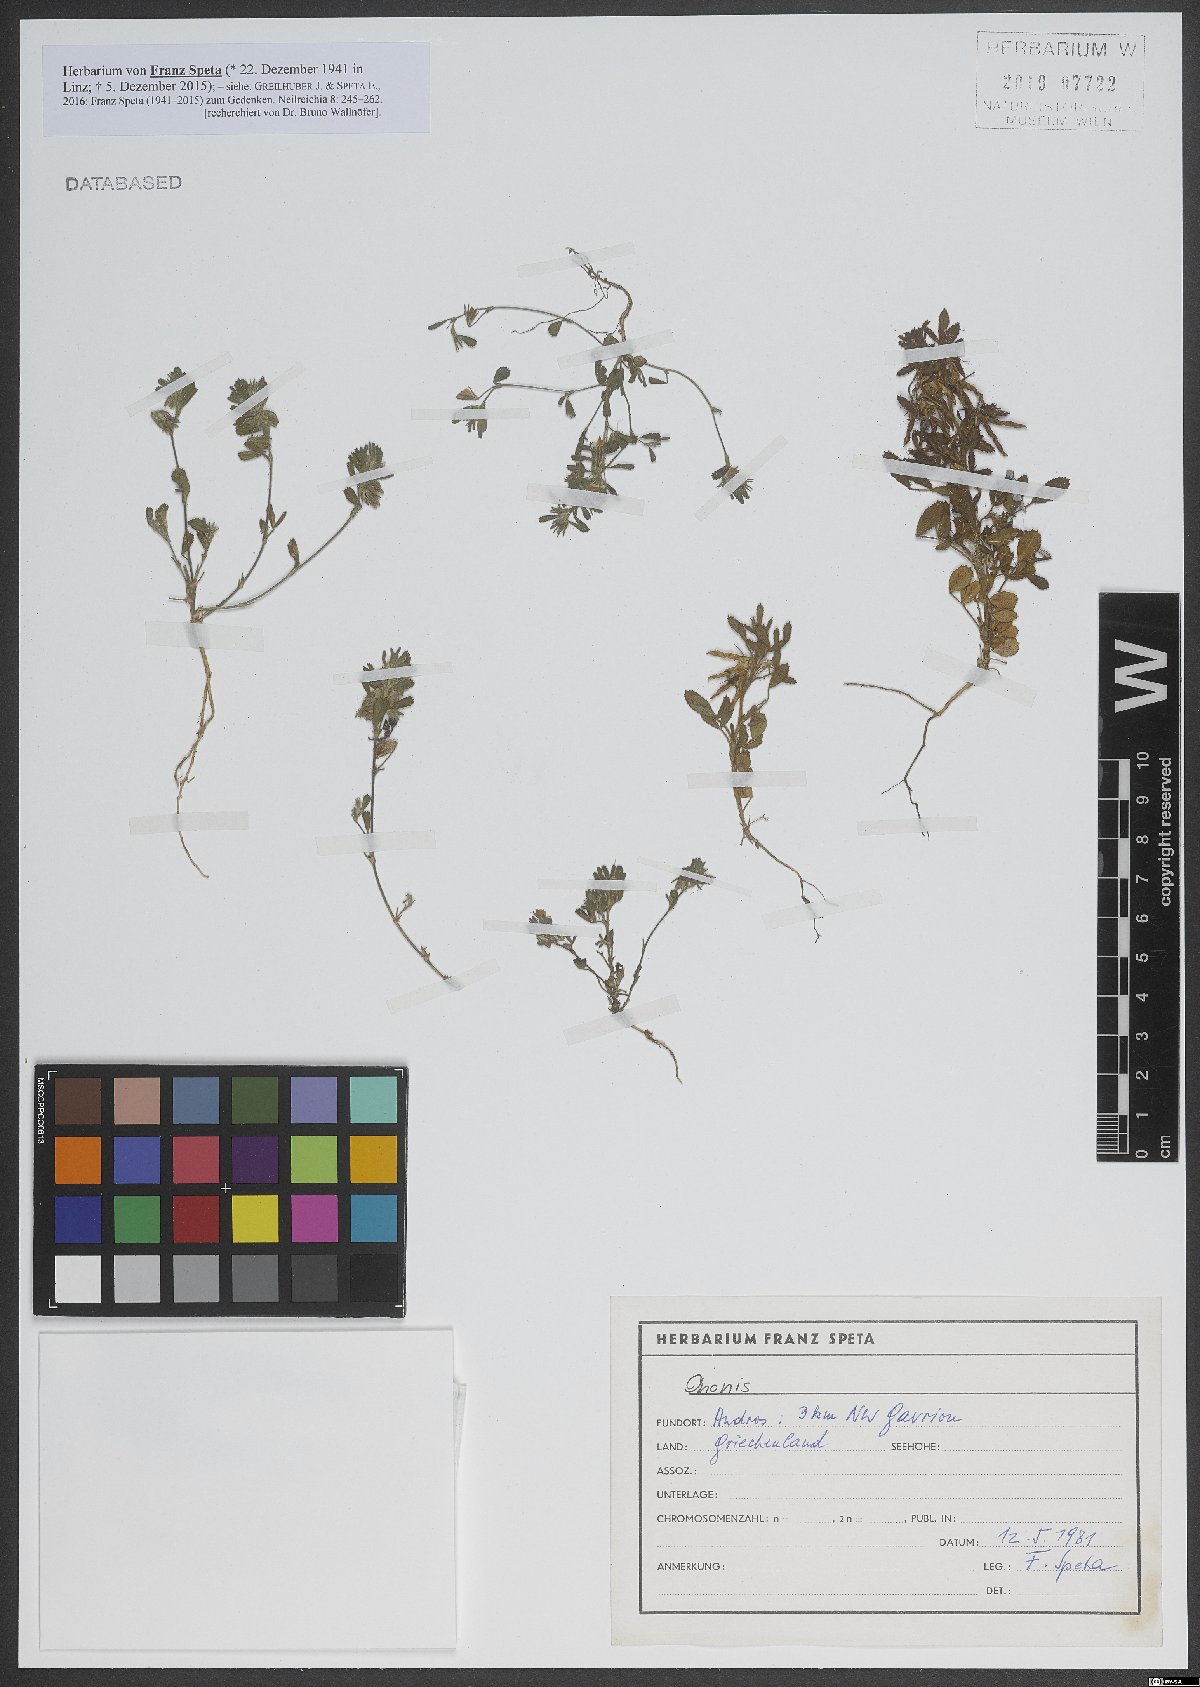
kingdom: Plantae
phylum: Tracheophyta
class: Magnoliopsida
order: Fabales
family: Fabaceae
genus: Ononis
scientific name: Ononis
